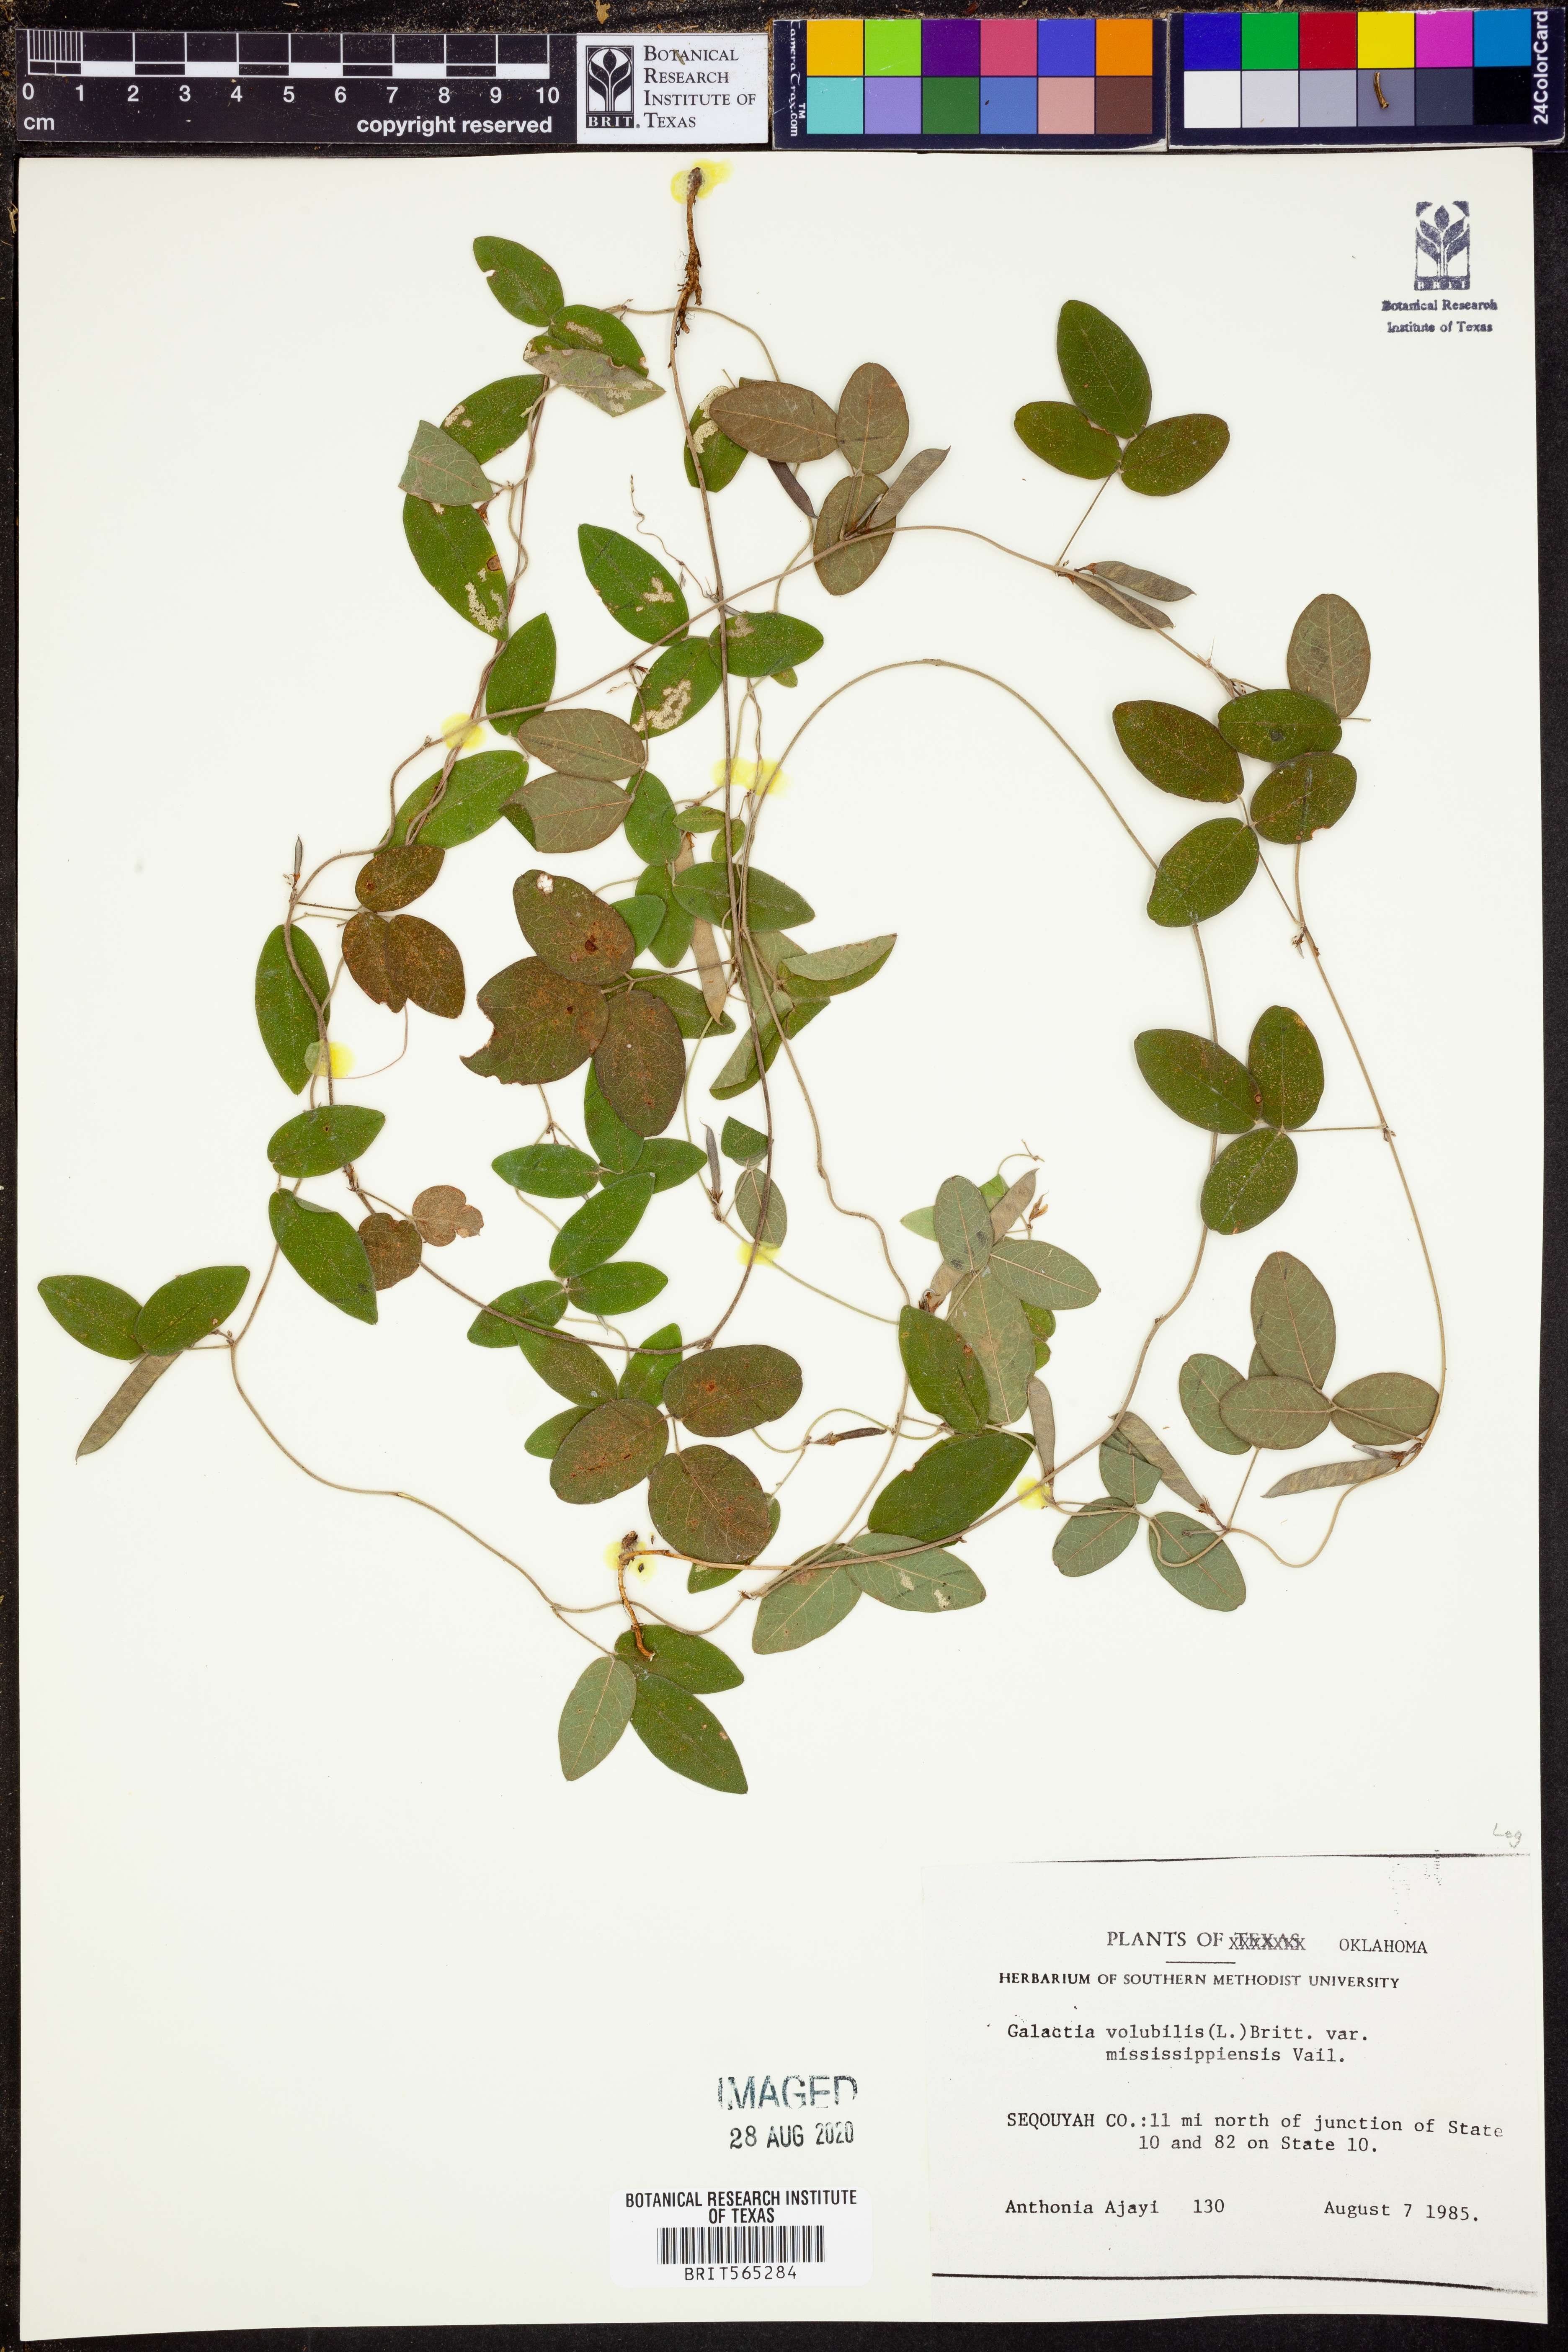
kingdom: Plantae
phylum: Tracheophyta
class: Magnoliopsida
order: Fabales
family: Fabaceae
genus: Galactia
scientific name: Galactia volubilis
